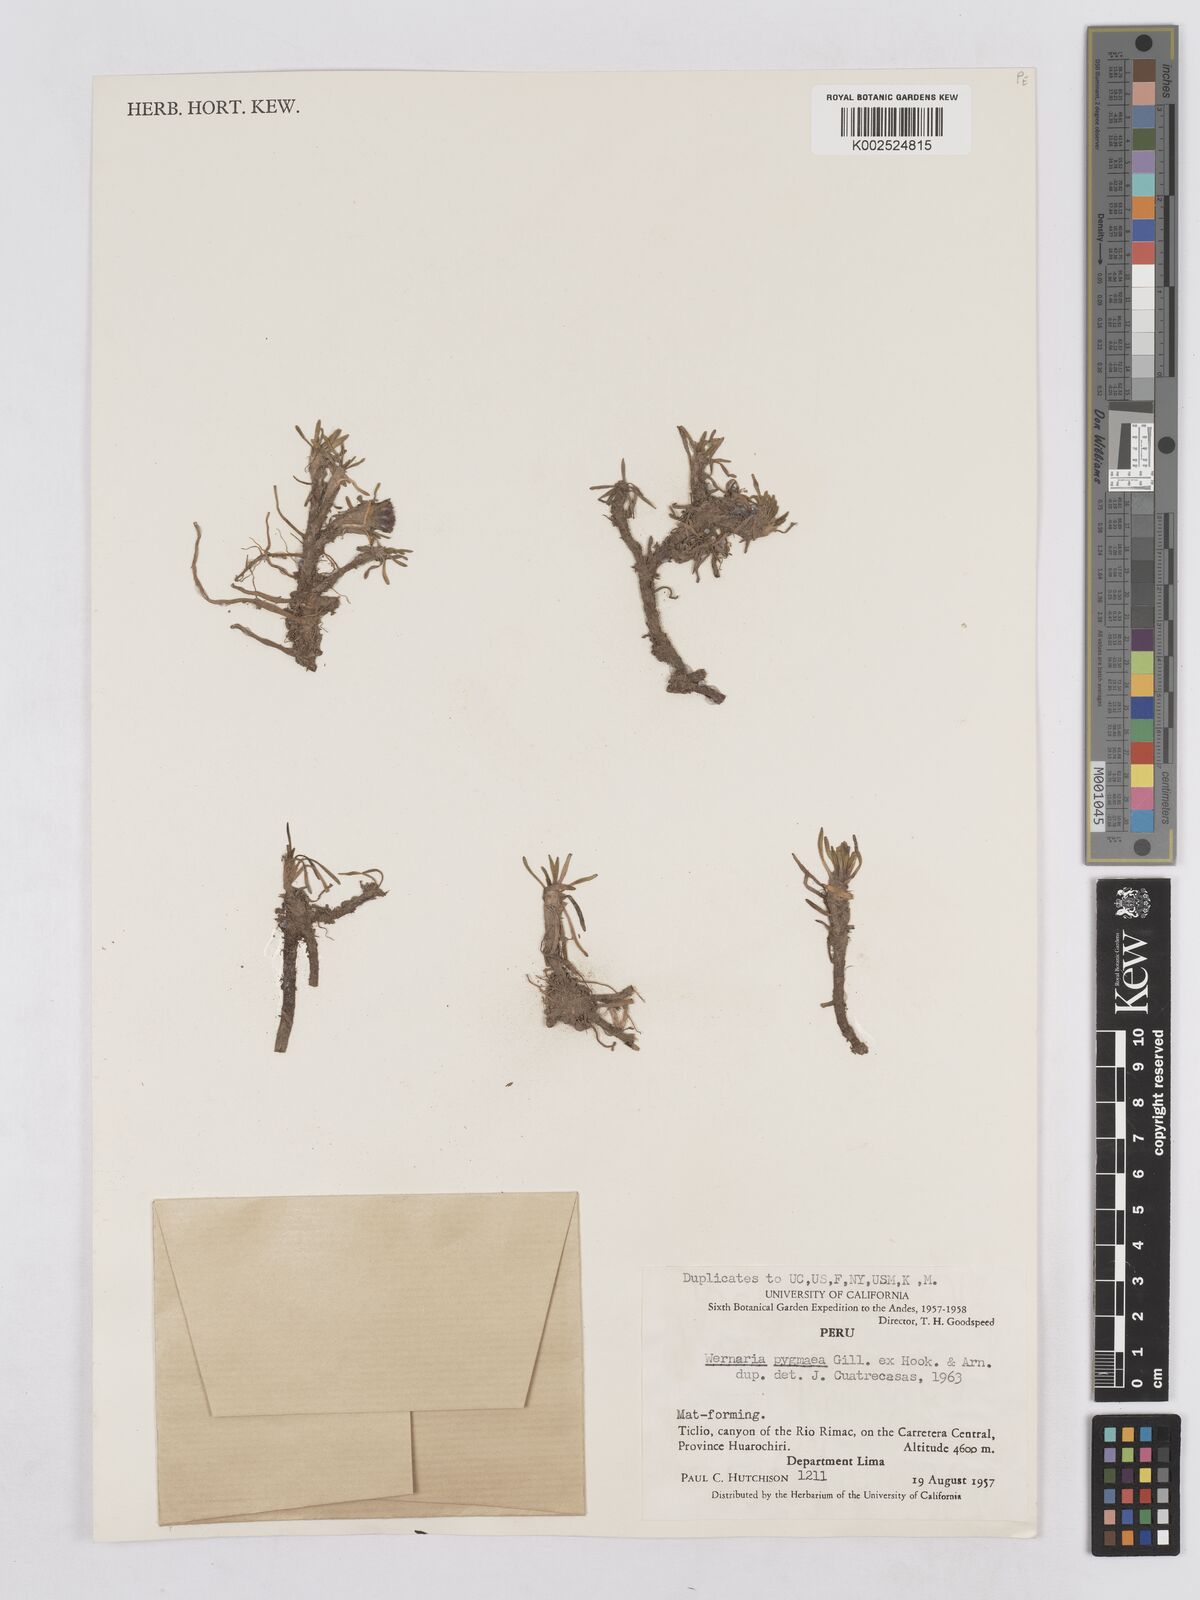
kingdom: Plantae
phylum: Tracheophyta
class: Magnoliopsida
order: Asterales
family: Asteraceae
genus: Rockhausenia
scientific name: Rockhausenia pygmaea
